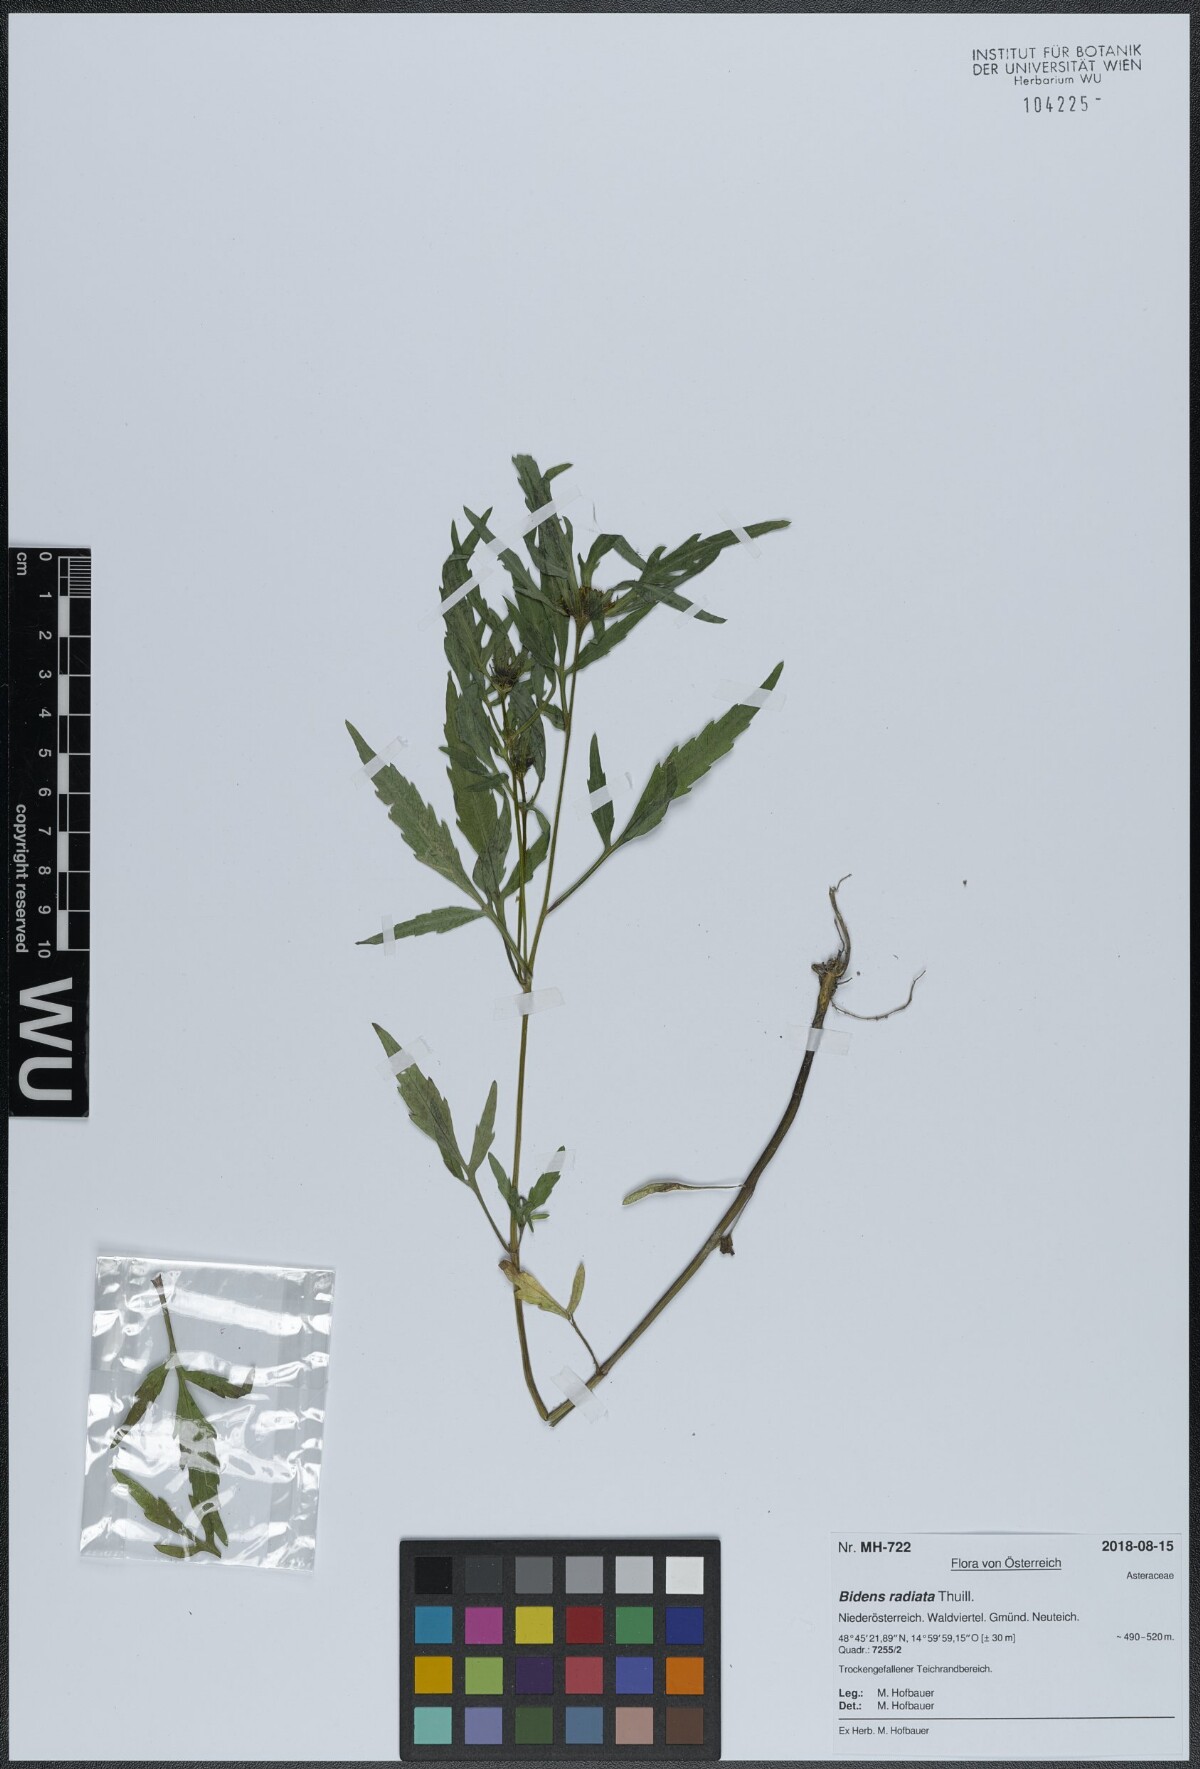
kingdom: Plantae
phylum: Tracheophyta
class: Magnoliopsida
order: Asterales
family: Asteraceae
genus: Bidens
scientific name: Bidens radiata
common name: Radiating bur-marigold
